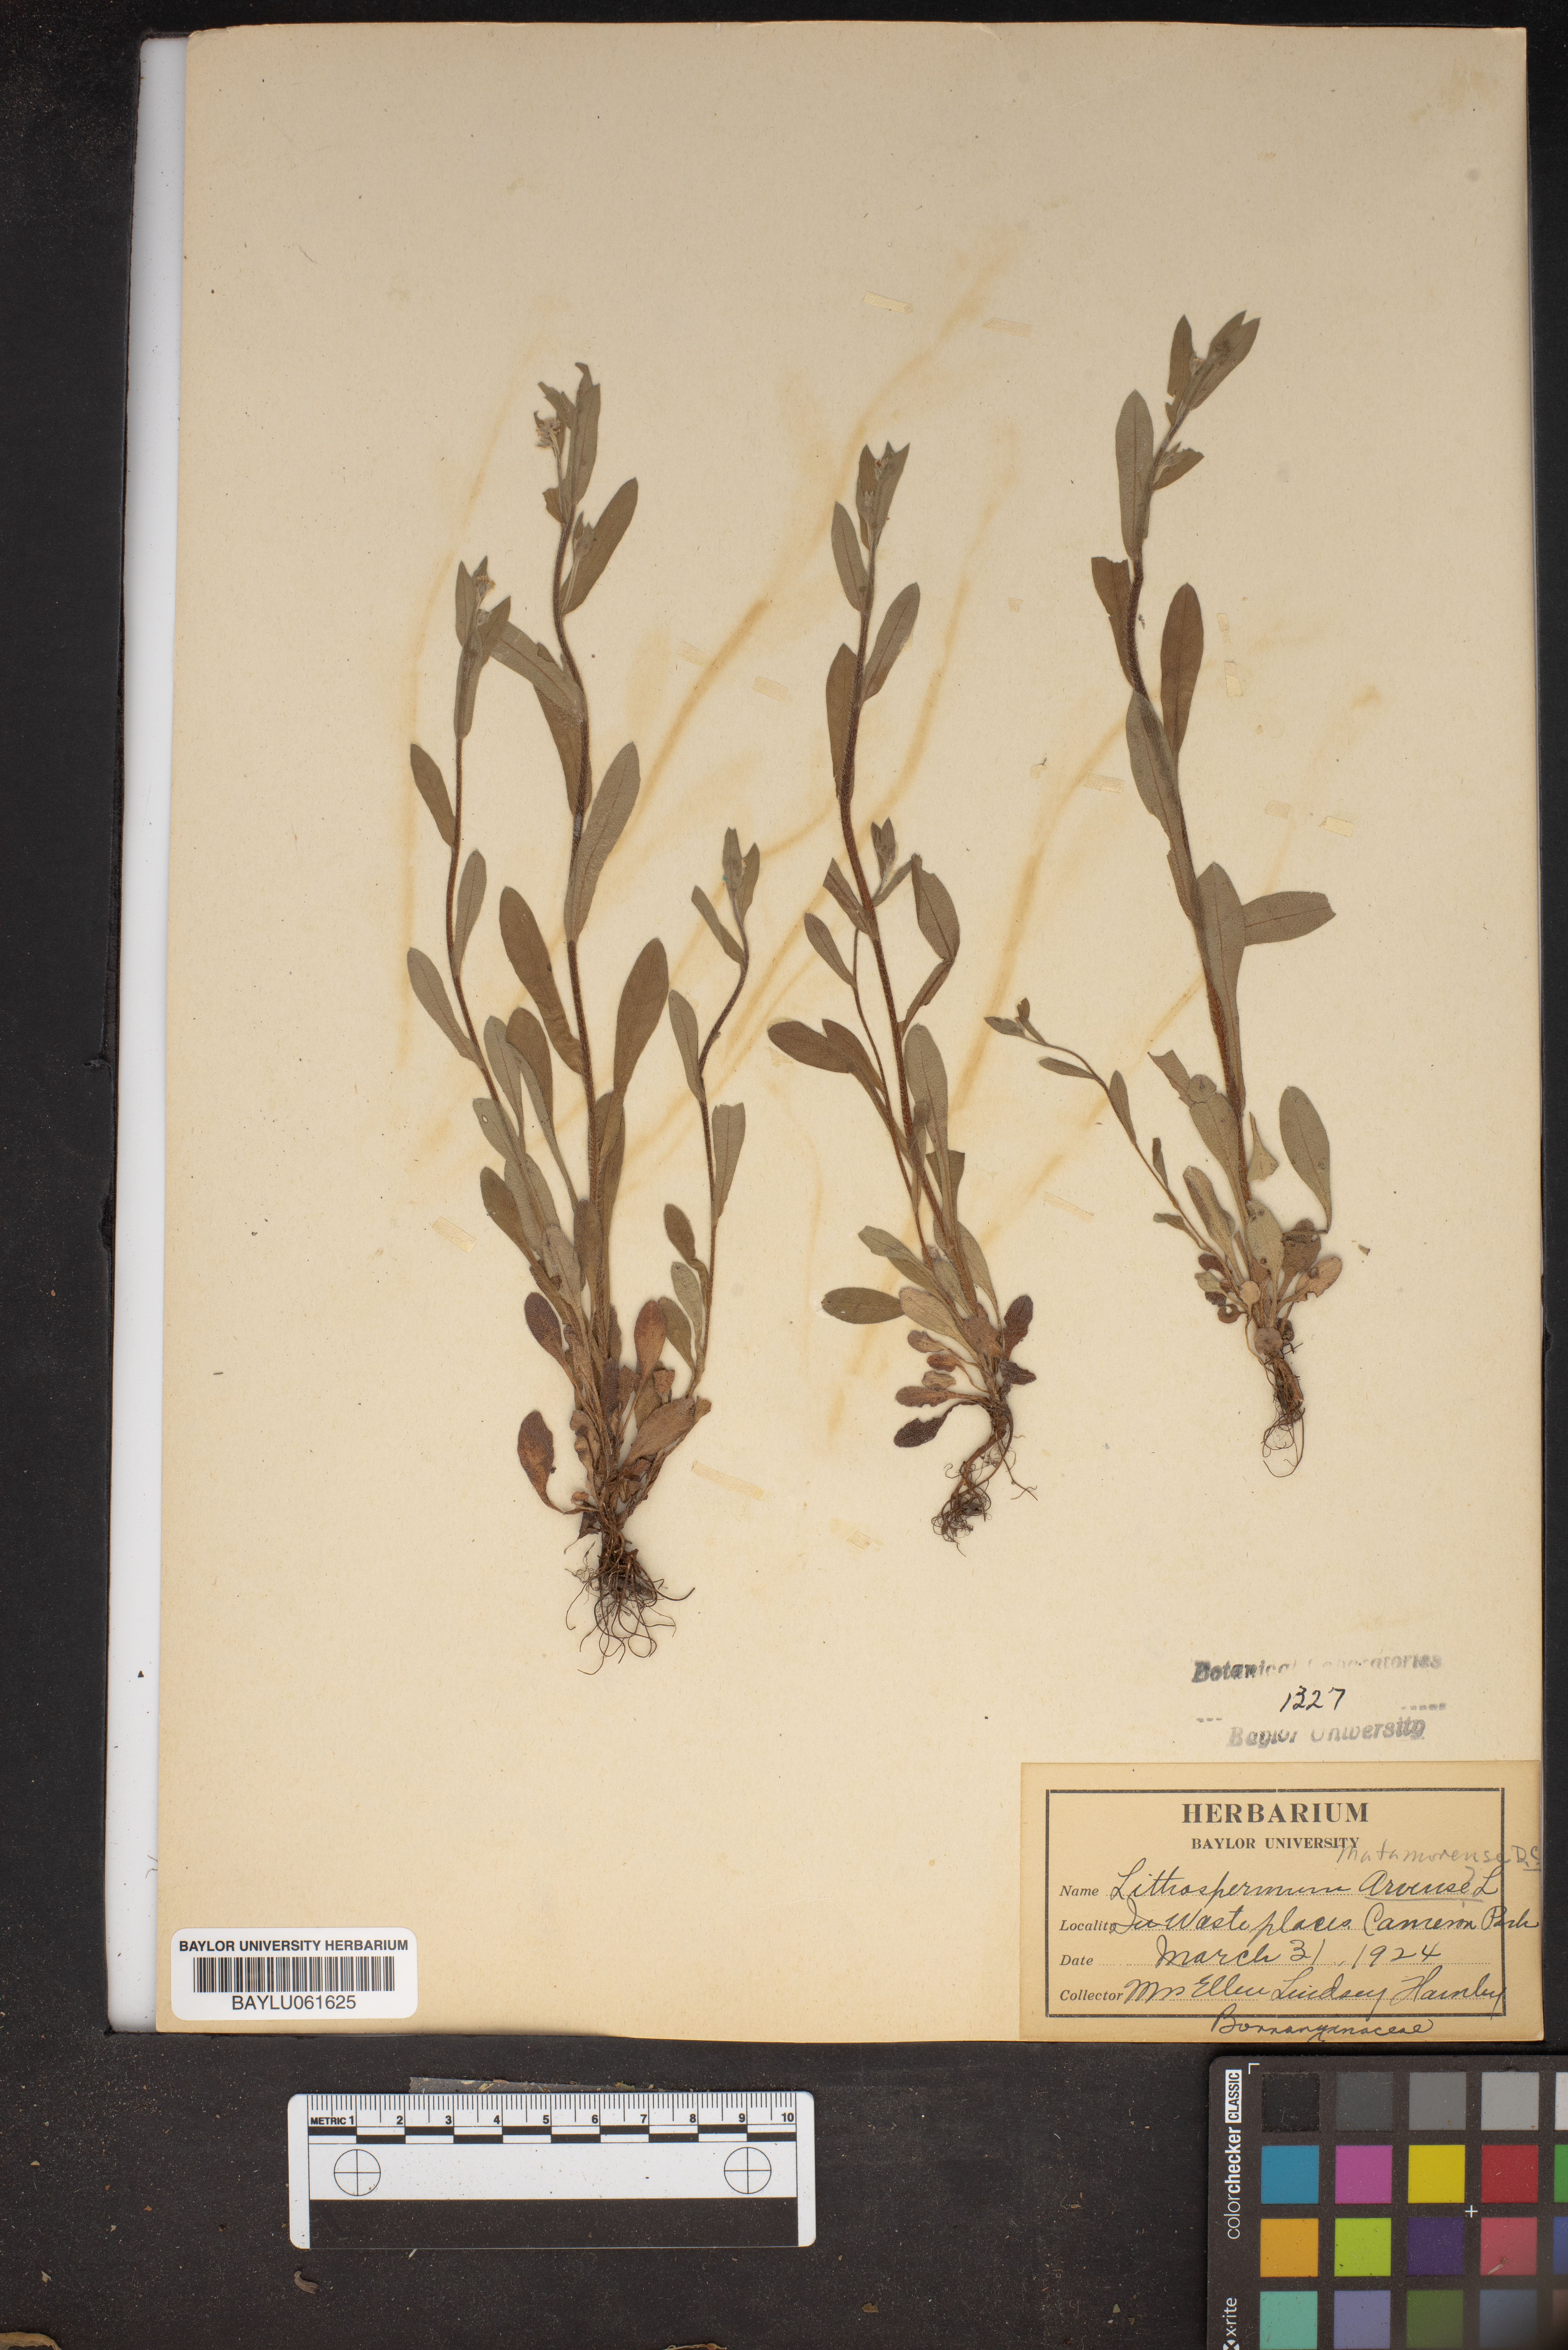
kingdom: Plantae
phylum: Tracheophyta
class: Magnoliopsida
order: Boraginales
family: Boraginaceae
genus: Lithospermum
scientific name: Lithospermum erythrorhizon
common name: Purple gromwell
